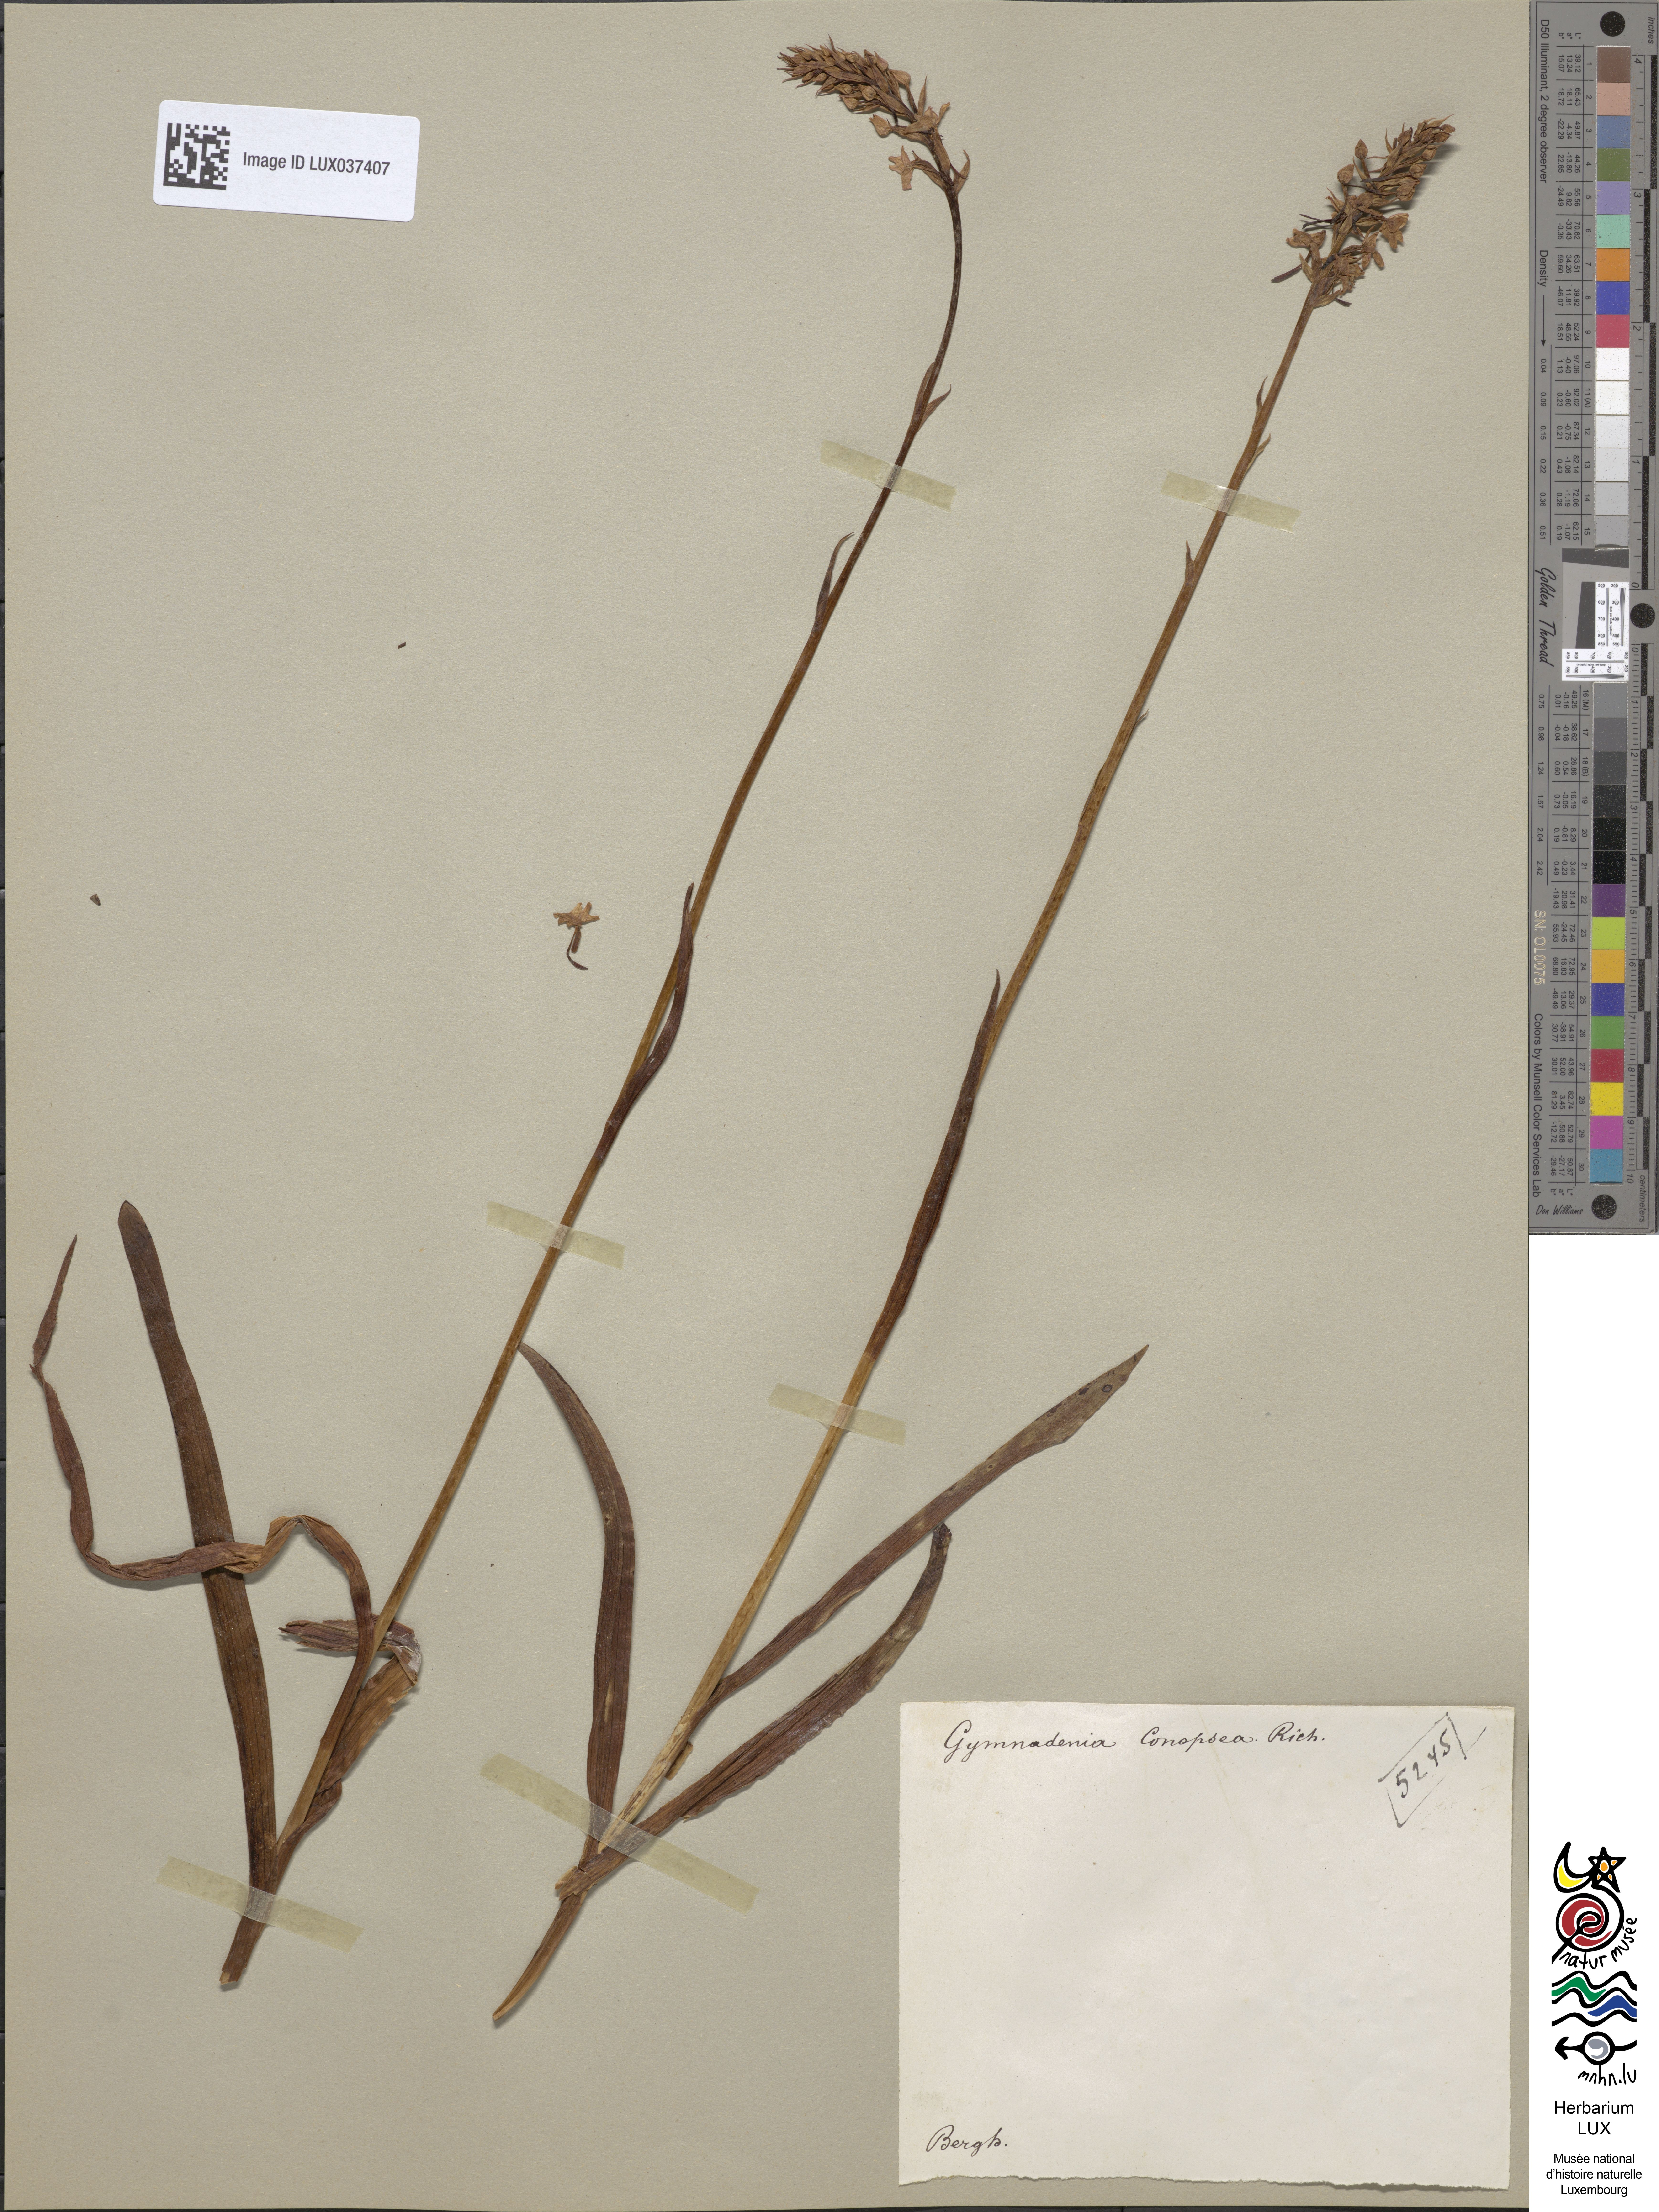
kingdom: Plantae
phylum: Tracheophyta
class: Liliopsida
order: Asparagales
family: Orchidaceae
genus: Gymnadenia
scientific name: Gymnadenia conopsea
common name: Fragrant orchid
